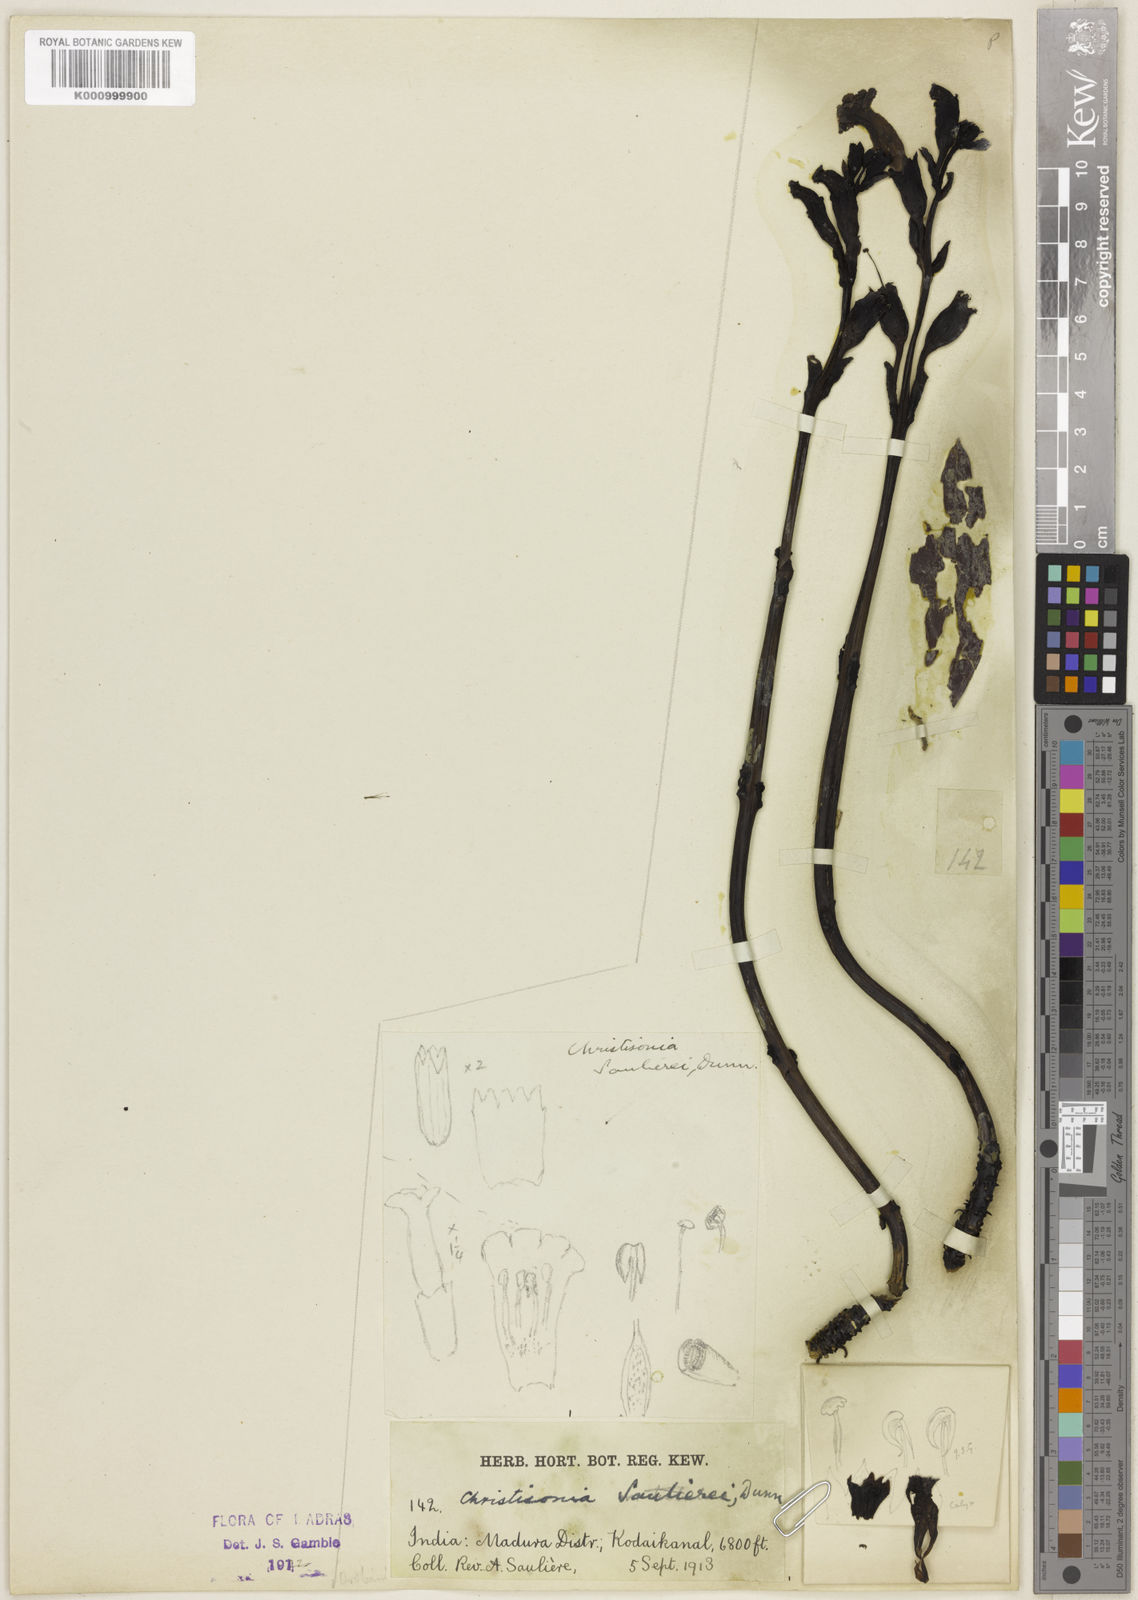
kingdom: Plantae
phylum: Tracheophyta
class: Magnoliopsida
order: Lamiales
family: Orobanchaceae
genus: Christisonia
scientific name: Christisonia saulierei
